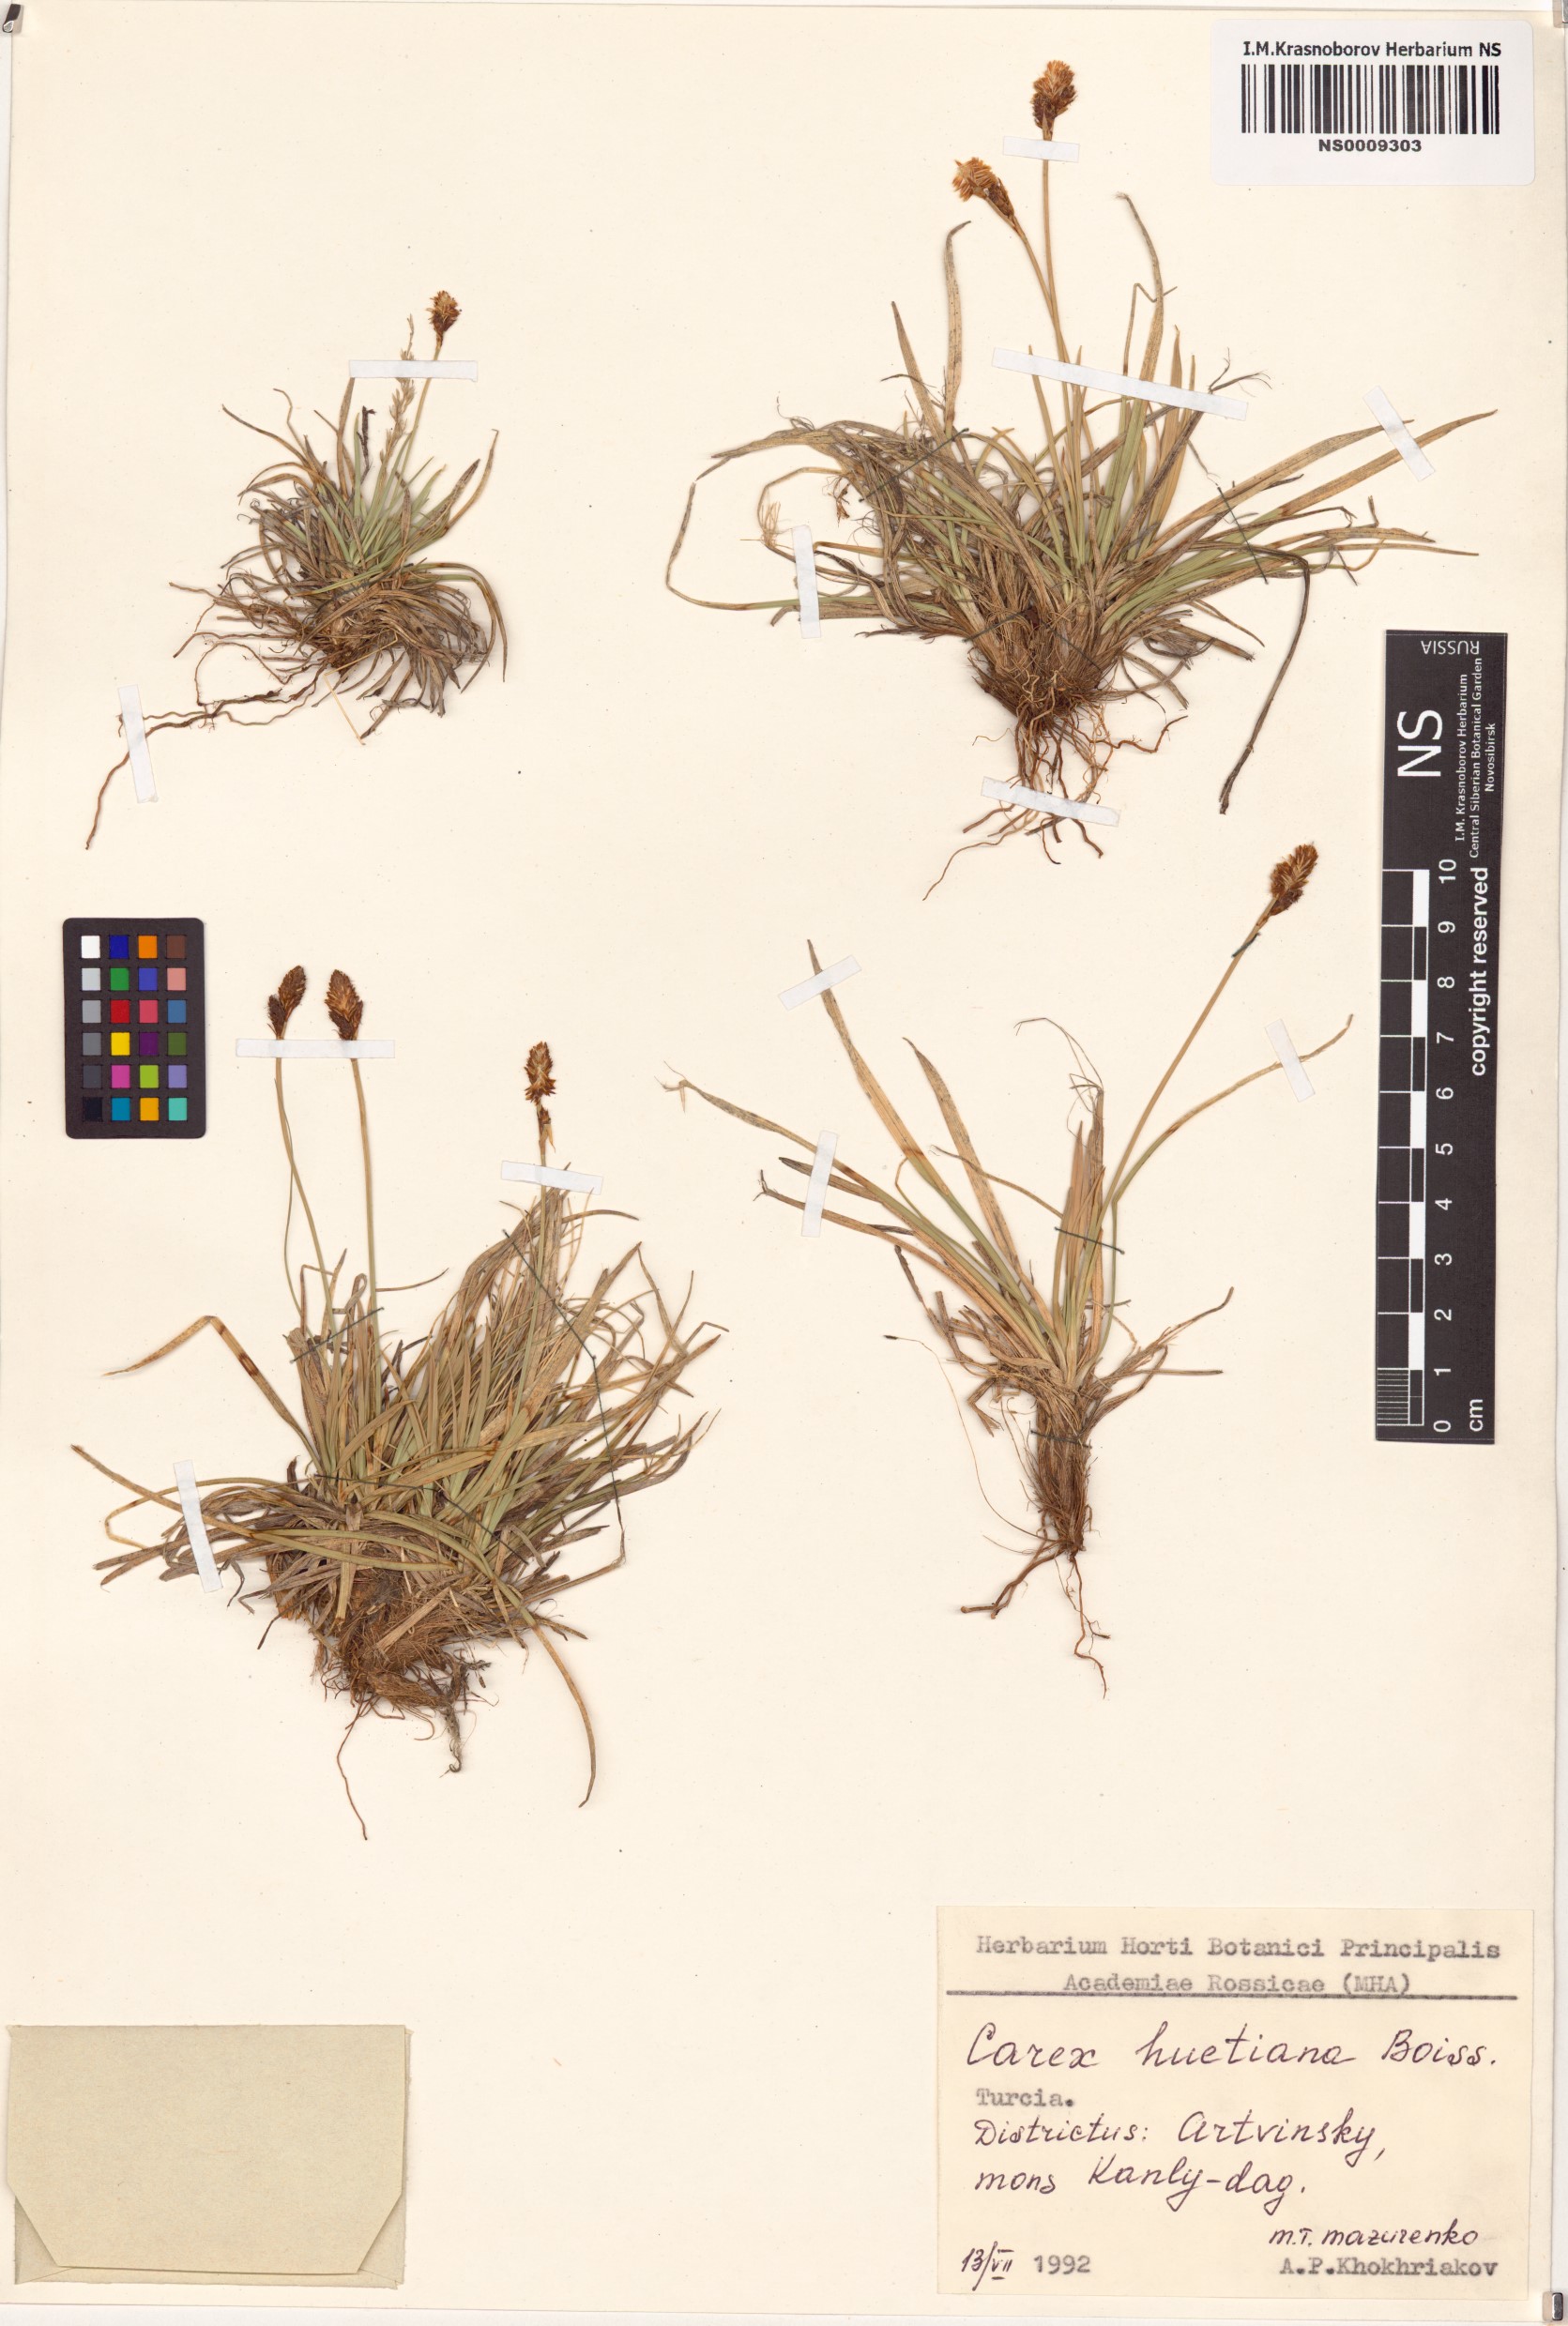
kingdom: Plantae
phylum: Tracheophyta
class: Liliopsida
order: Poales
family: Cyperaceae
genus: Carex
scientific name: Carex umbrosa
